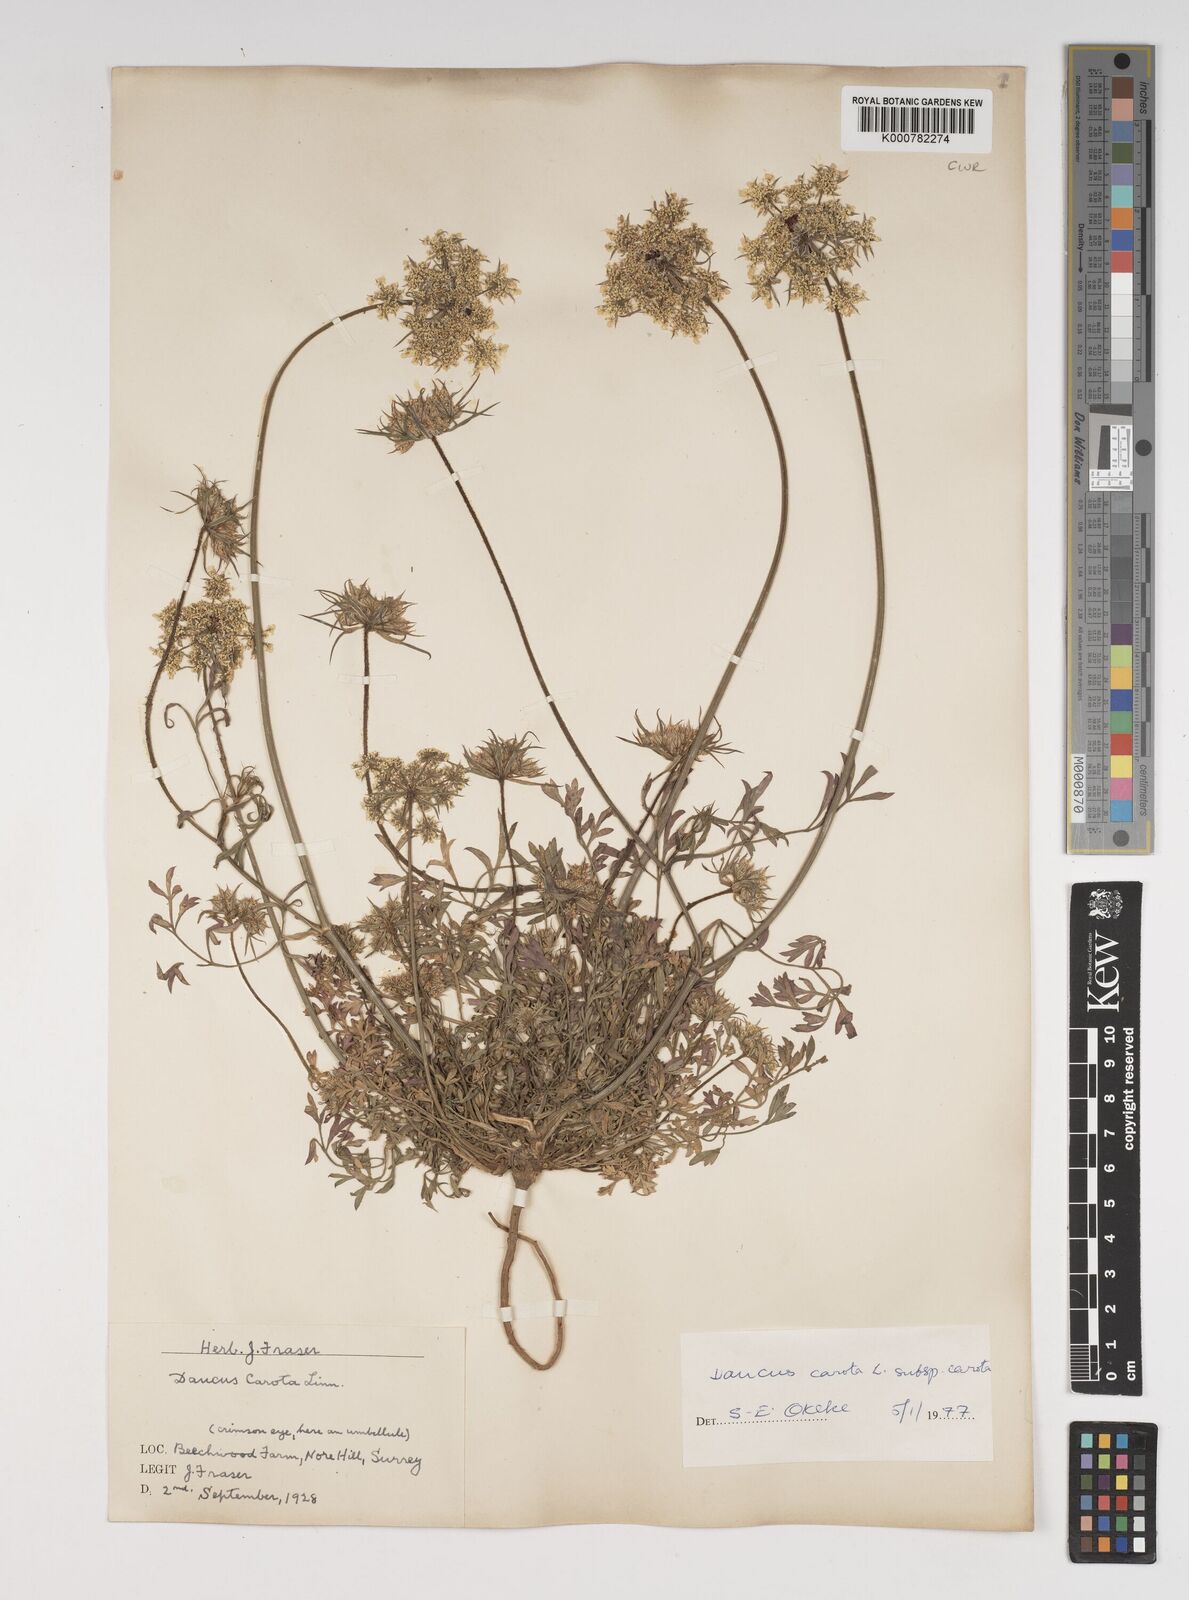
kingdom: Plantae
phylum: Tracheophyta
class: Magnoliopsida
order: Apiales
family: Apiaceae
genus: Daucus
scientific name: Daucus carota
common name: Wild carrot
